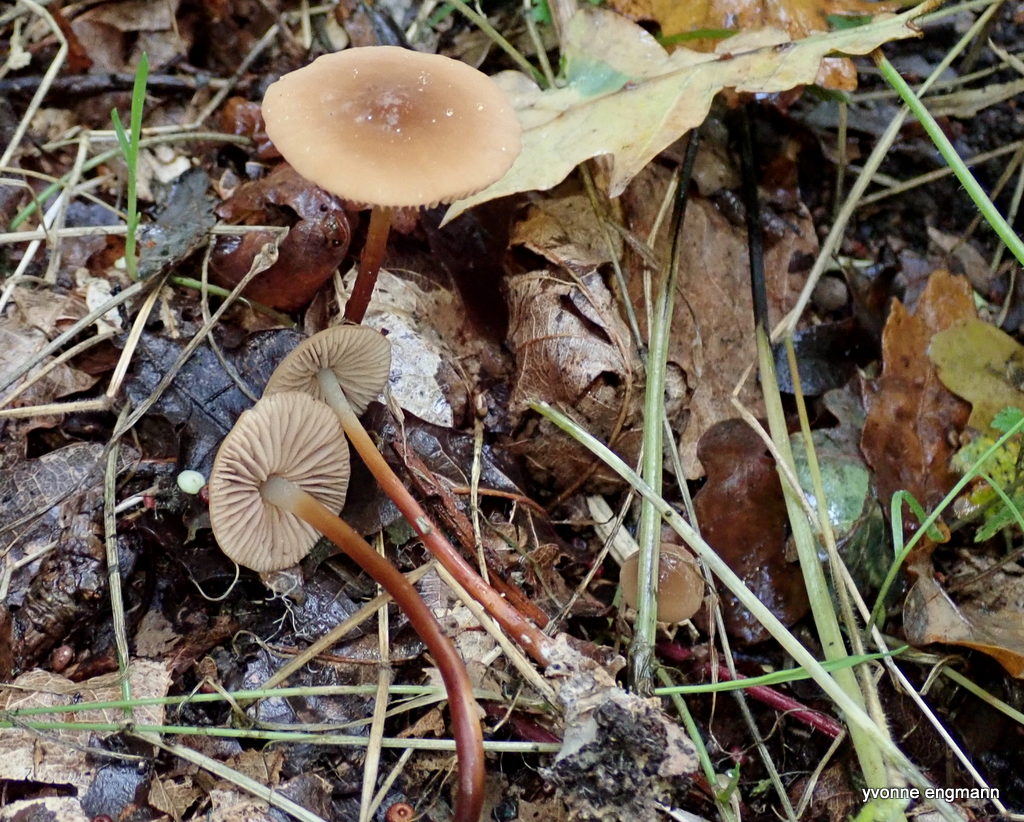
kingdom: Fungi
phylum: Basidiomycota
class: Agaricomycetes
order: Agaricales
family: Marasmiaceae
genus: Marasmius
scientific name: Marasmius torquescens
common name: filtfodet bruskhat
